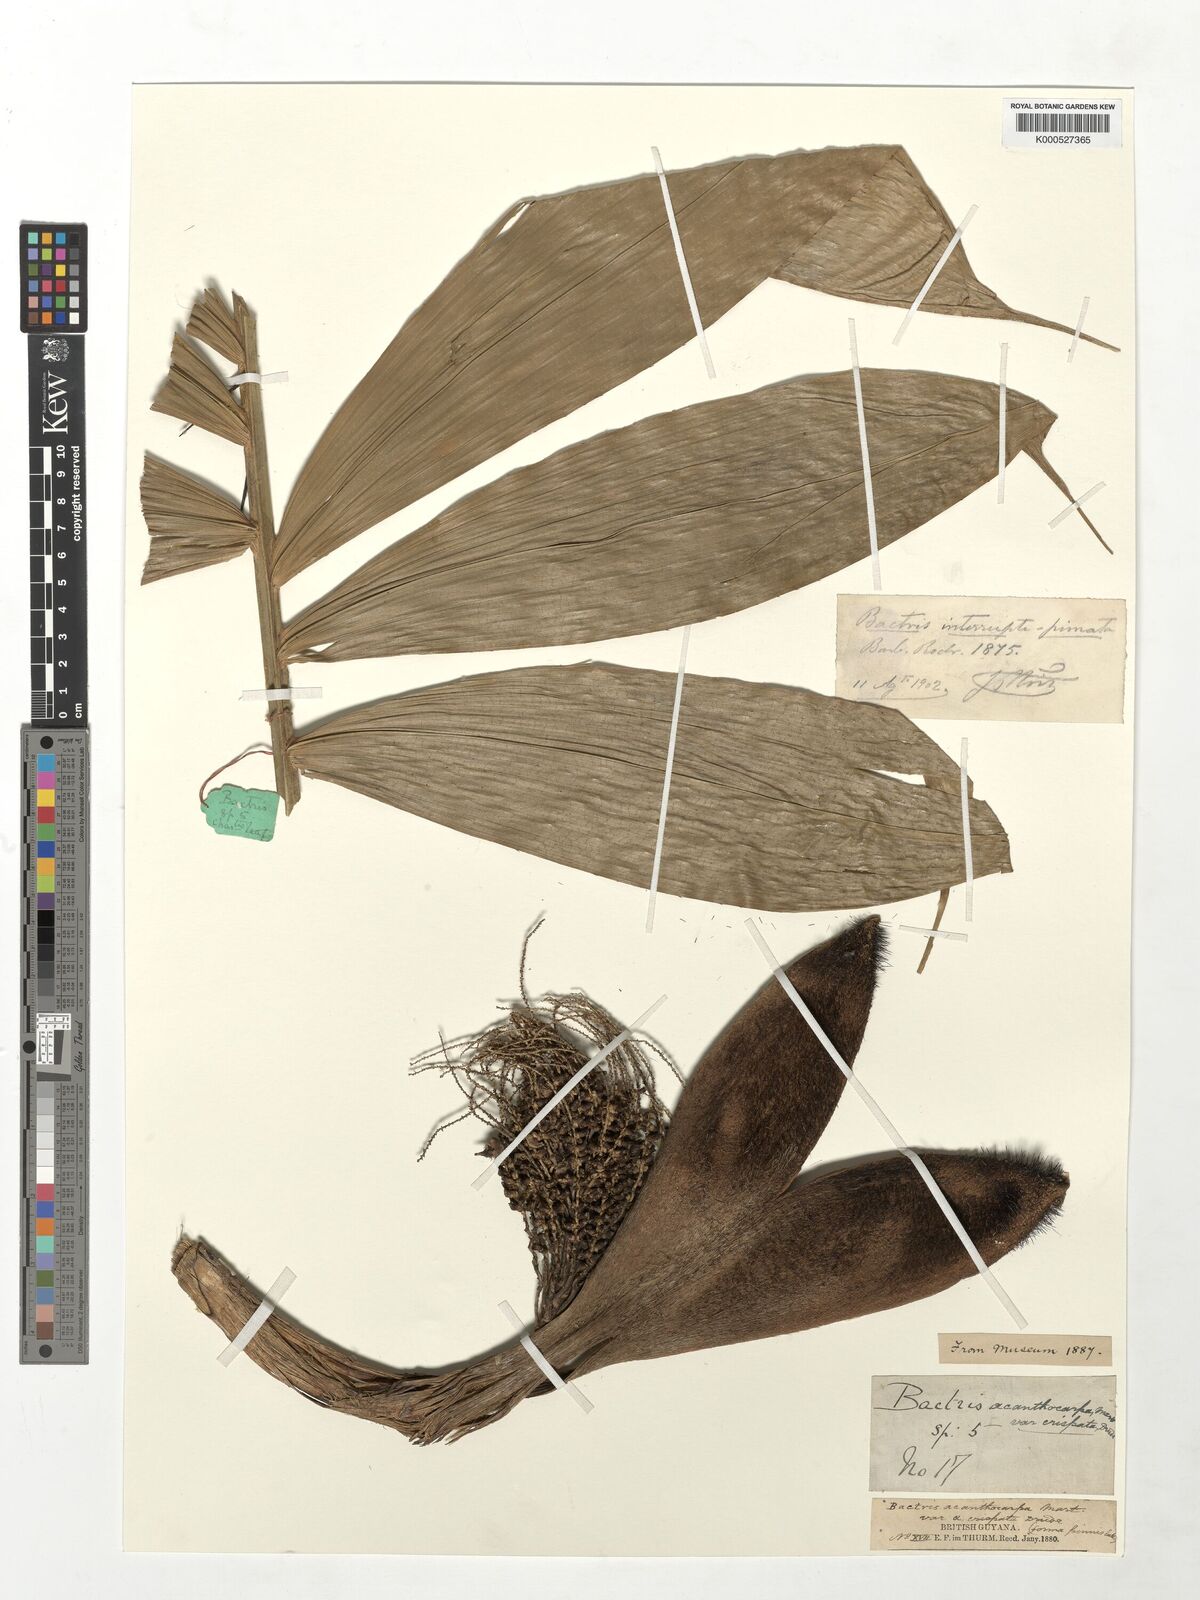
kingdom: Plantae
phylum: Tracheophyta
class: Liliopsida
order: Arecales
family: Arecaceae
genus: Bactris
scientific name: Bactris acanthocarpa
